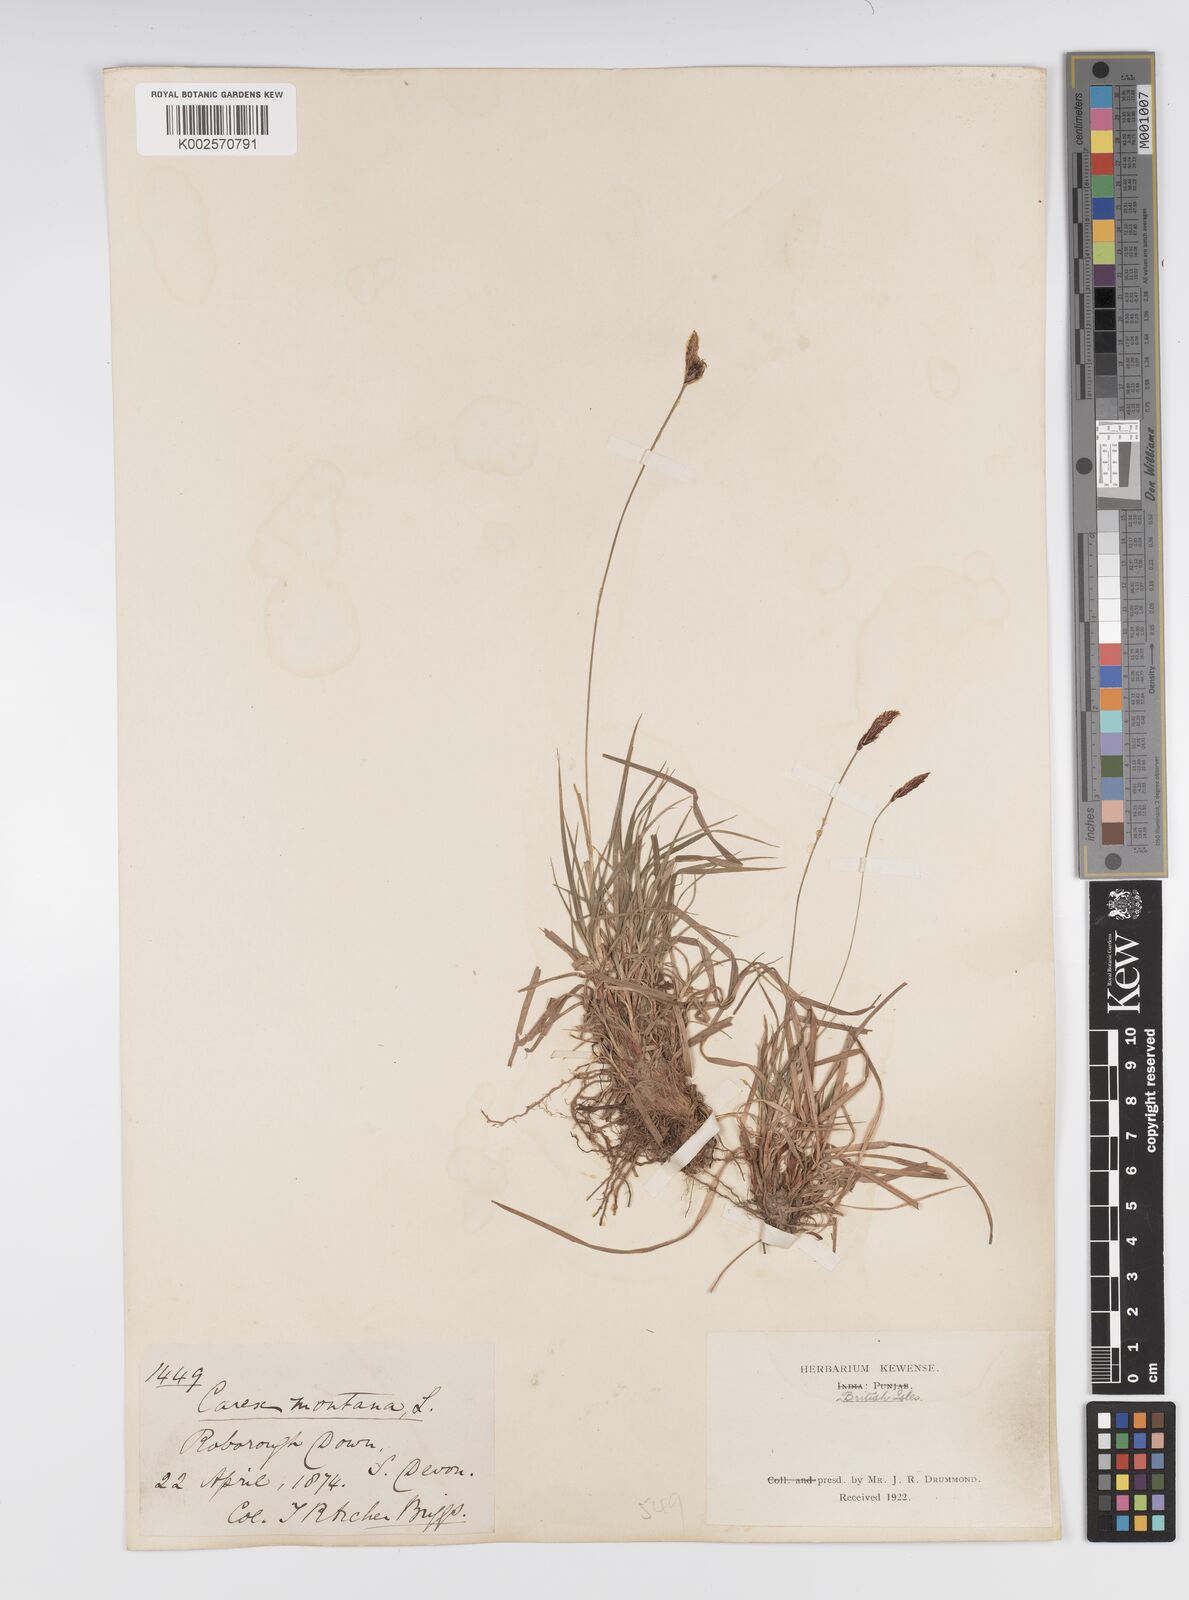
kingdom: Plantae
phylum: Tracheophyta
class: Liliopsida
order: Poales
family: Cyperaceae
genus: Carex
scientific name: Carex montana
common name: Soft-leaved sedge
